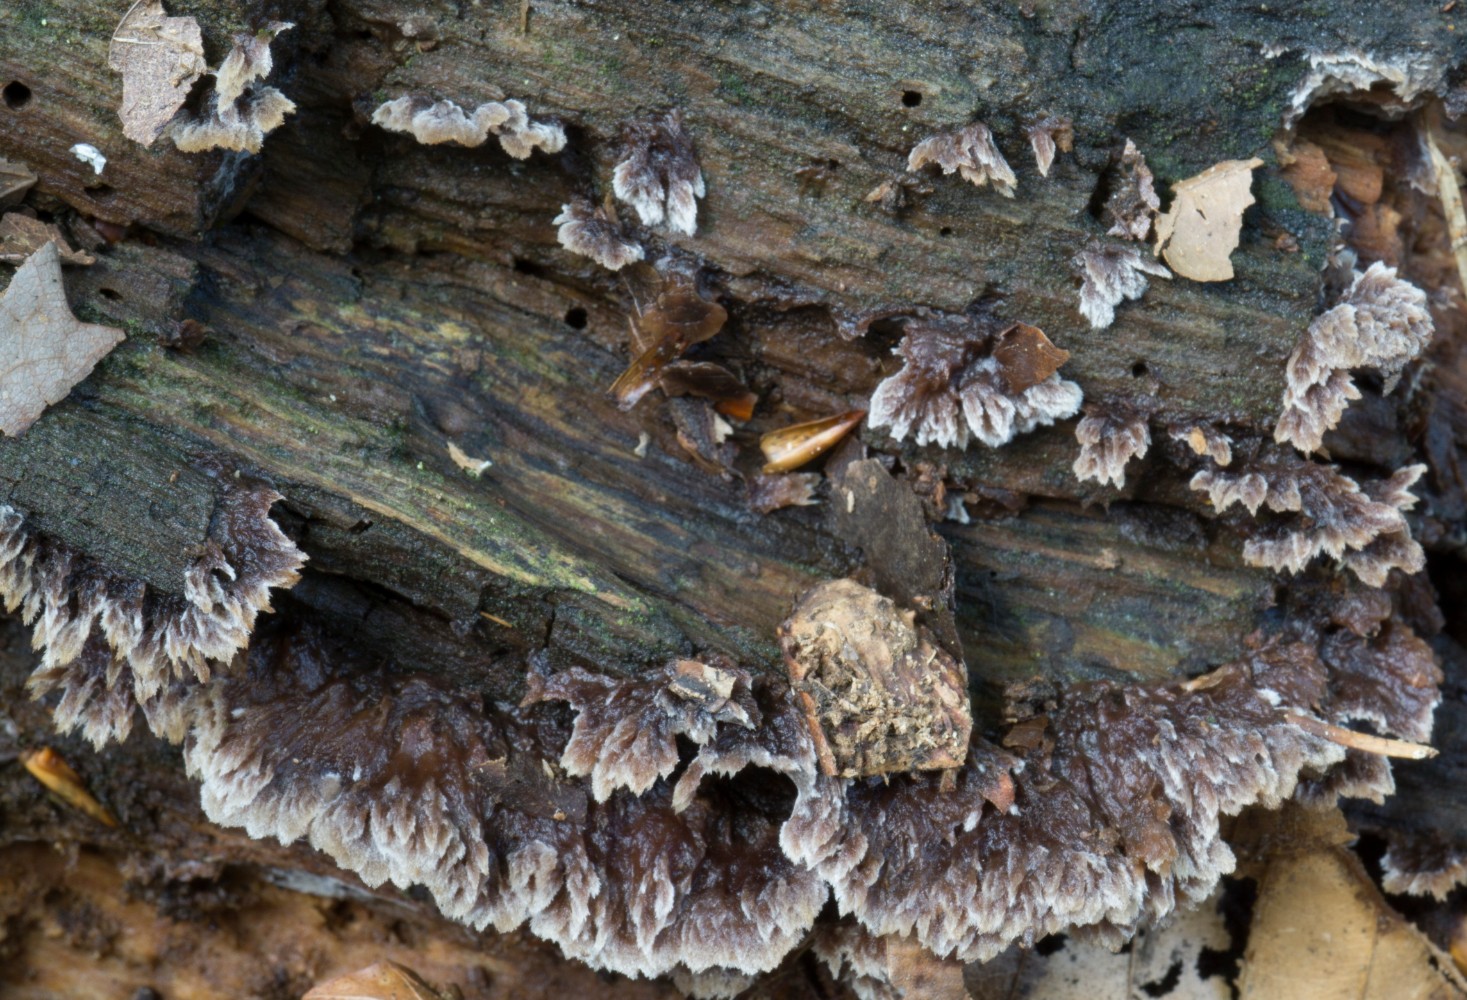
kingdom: Fungi
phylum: Basidiomycota
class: Agaricomycetes
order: Thelephorales
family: Thelephoraceae
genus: Thelephora
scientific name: Thelephora terrestris
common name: fliget frynsesvamp
